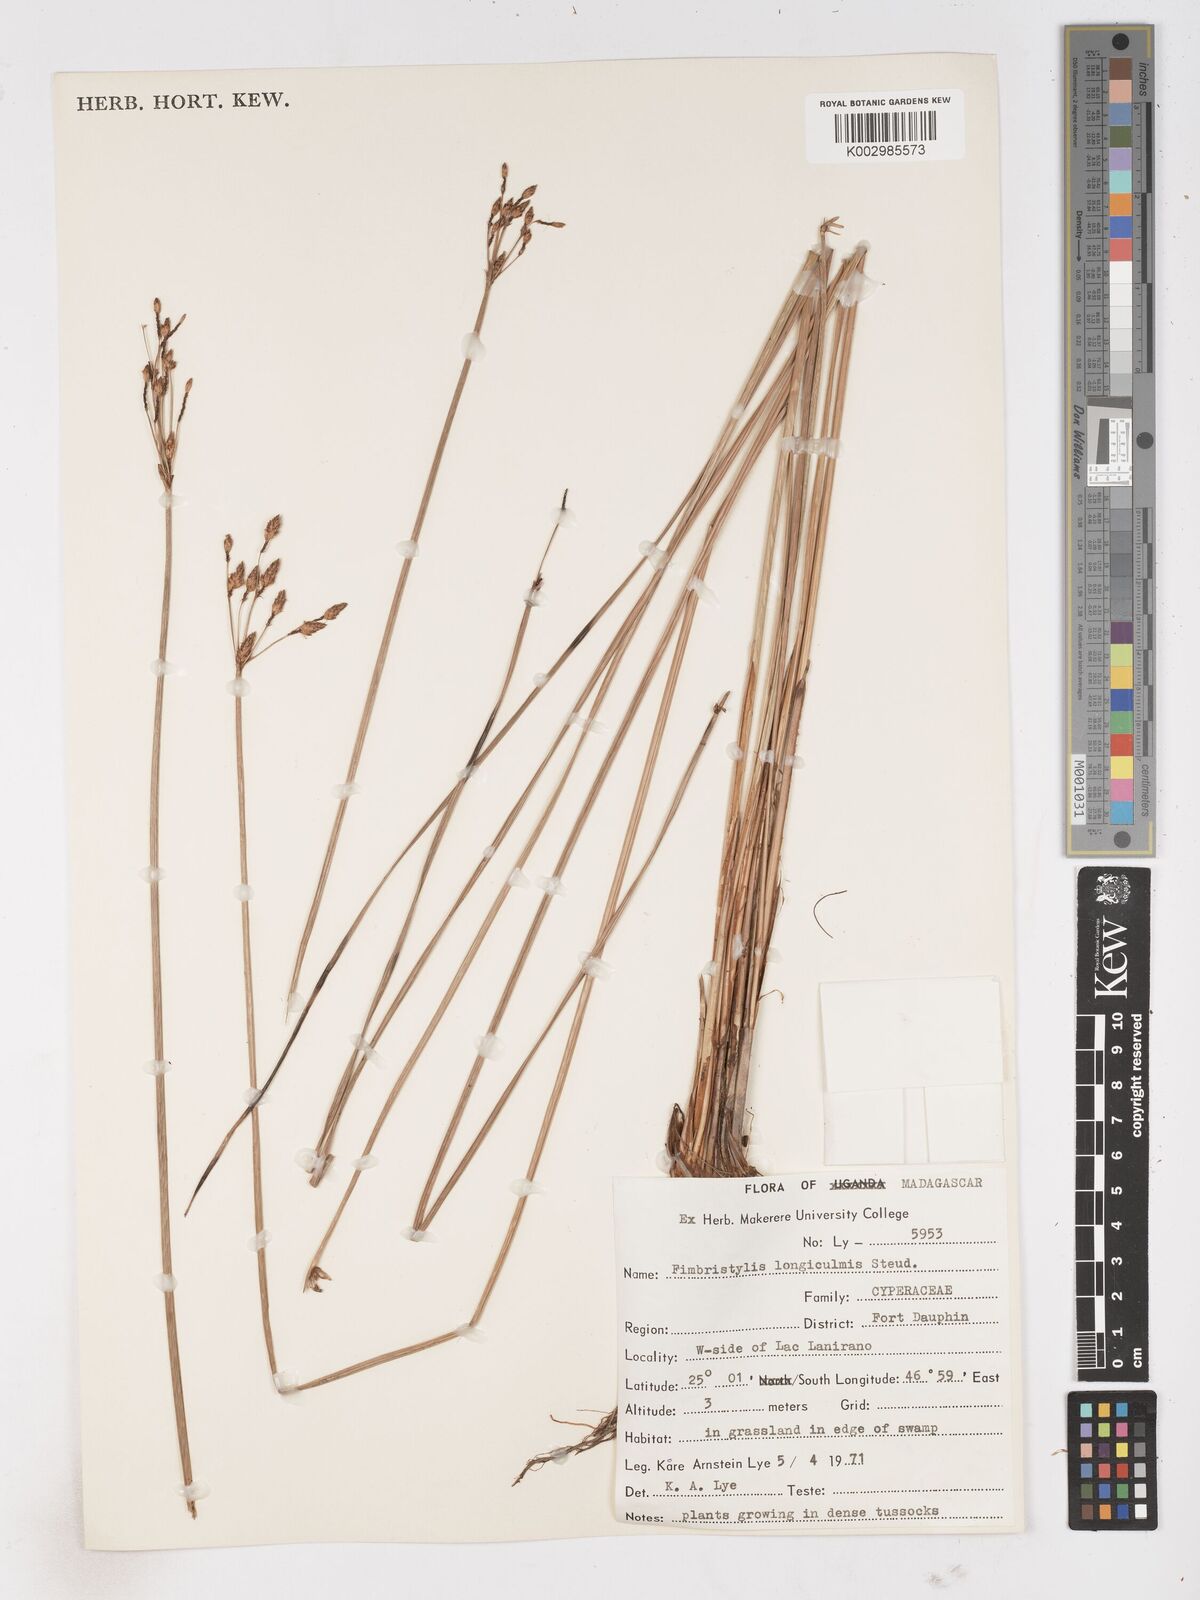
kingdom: Plantae
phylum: Tracheophyta
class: Liliopsida
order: Poales
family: Cyperaceae
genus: Fimbristylis
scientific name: Fimbristylis bivalvis
